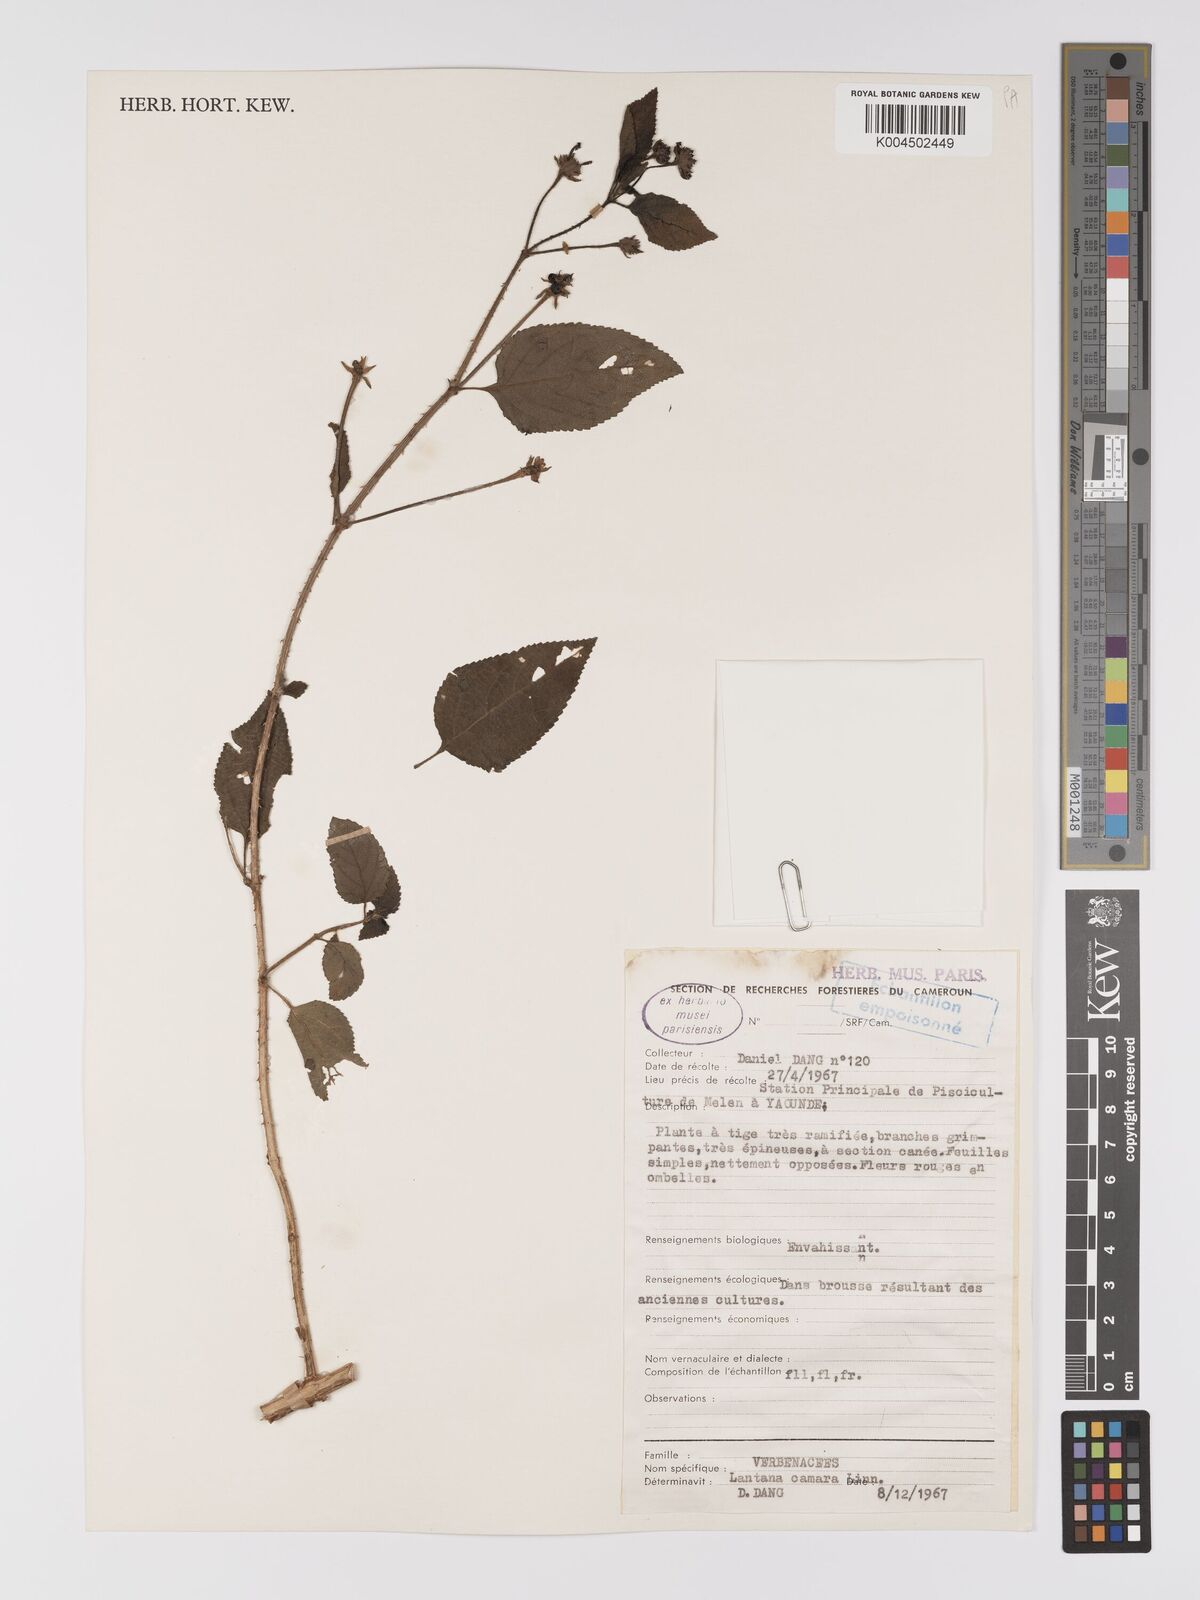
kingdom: Plantae
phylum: Tracheophyta
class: Magnoliopsida
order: Lamiales
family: Verbenaceae
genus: Lantana
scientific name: Lantana camara
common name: Lantana
